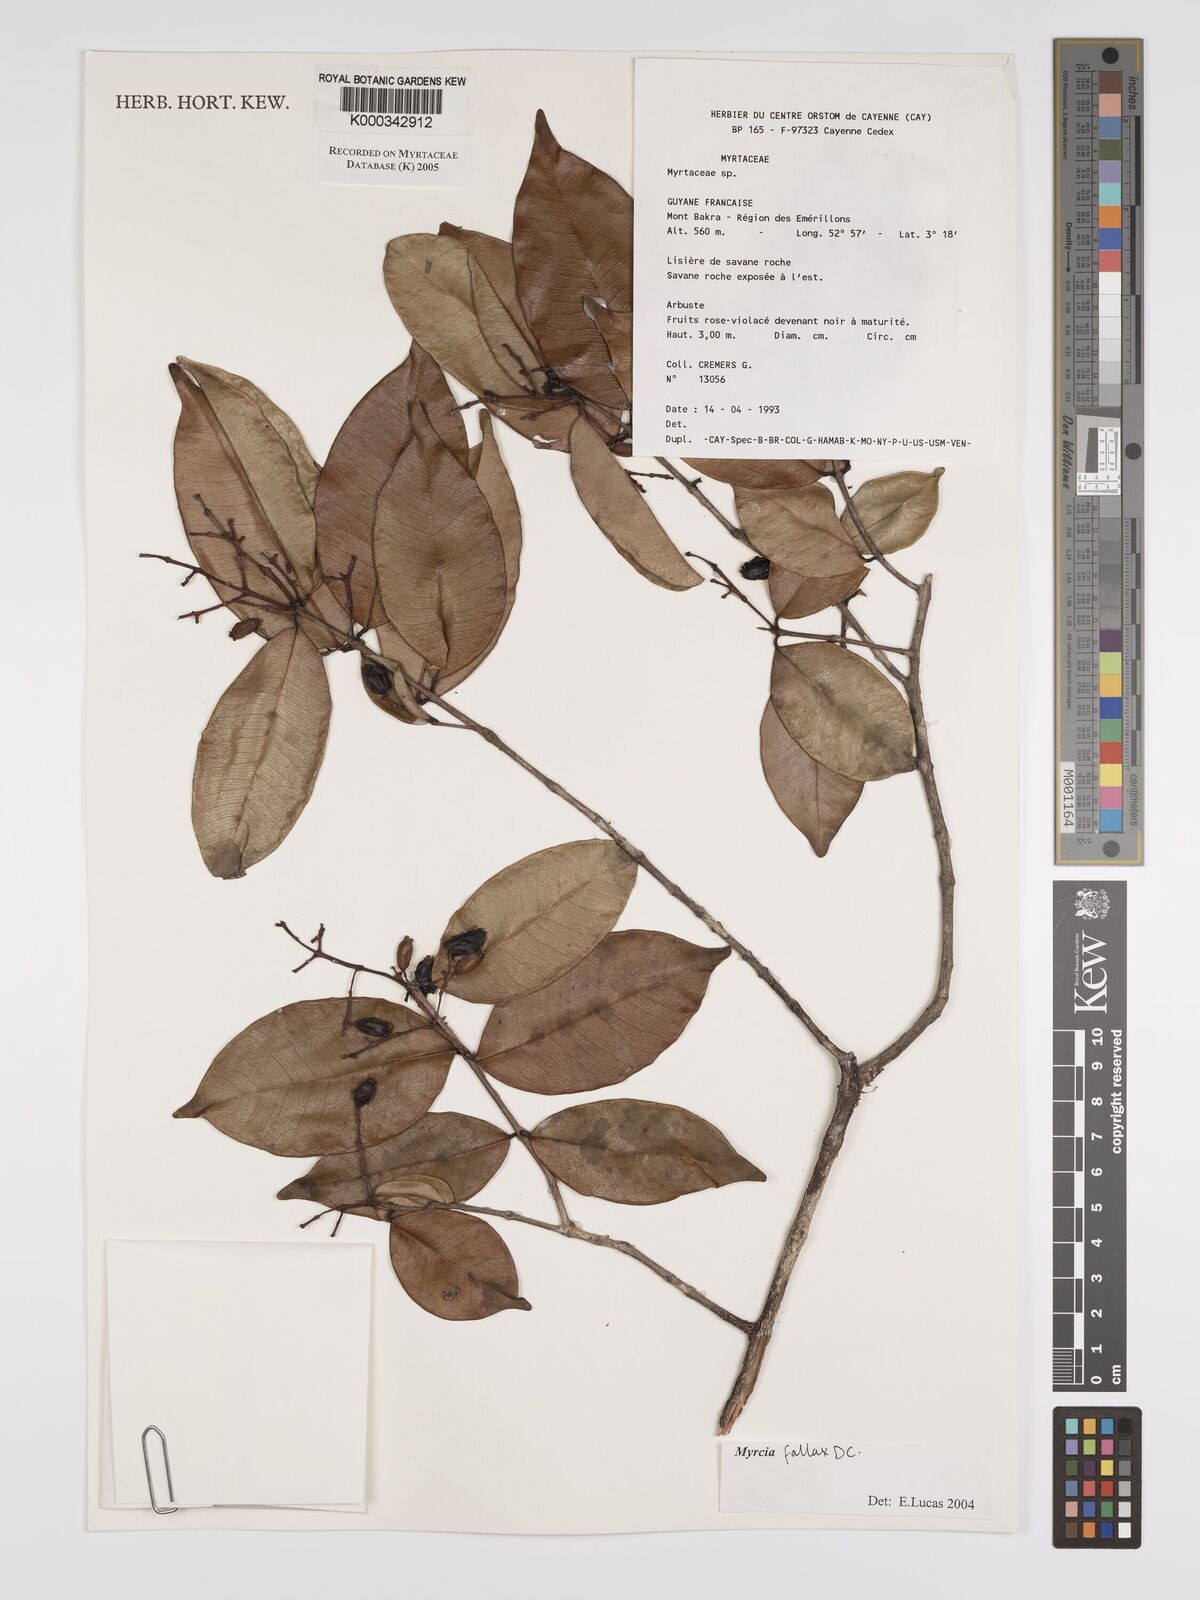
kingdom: Plantae
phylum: Tracheophyta
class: Magnoliopsida
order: Myrtales
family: Myrtaceae
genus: Myrcia
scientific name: Myrcia splendens
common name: Surinam cherry
